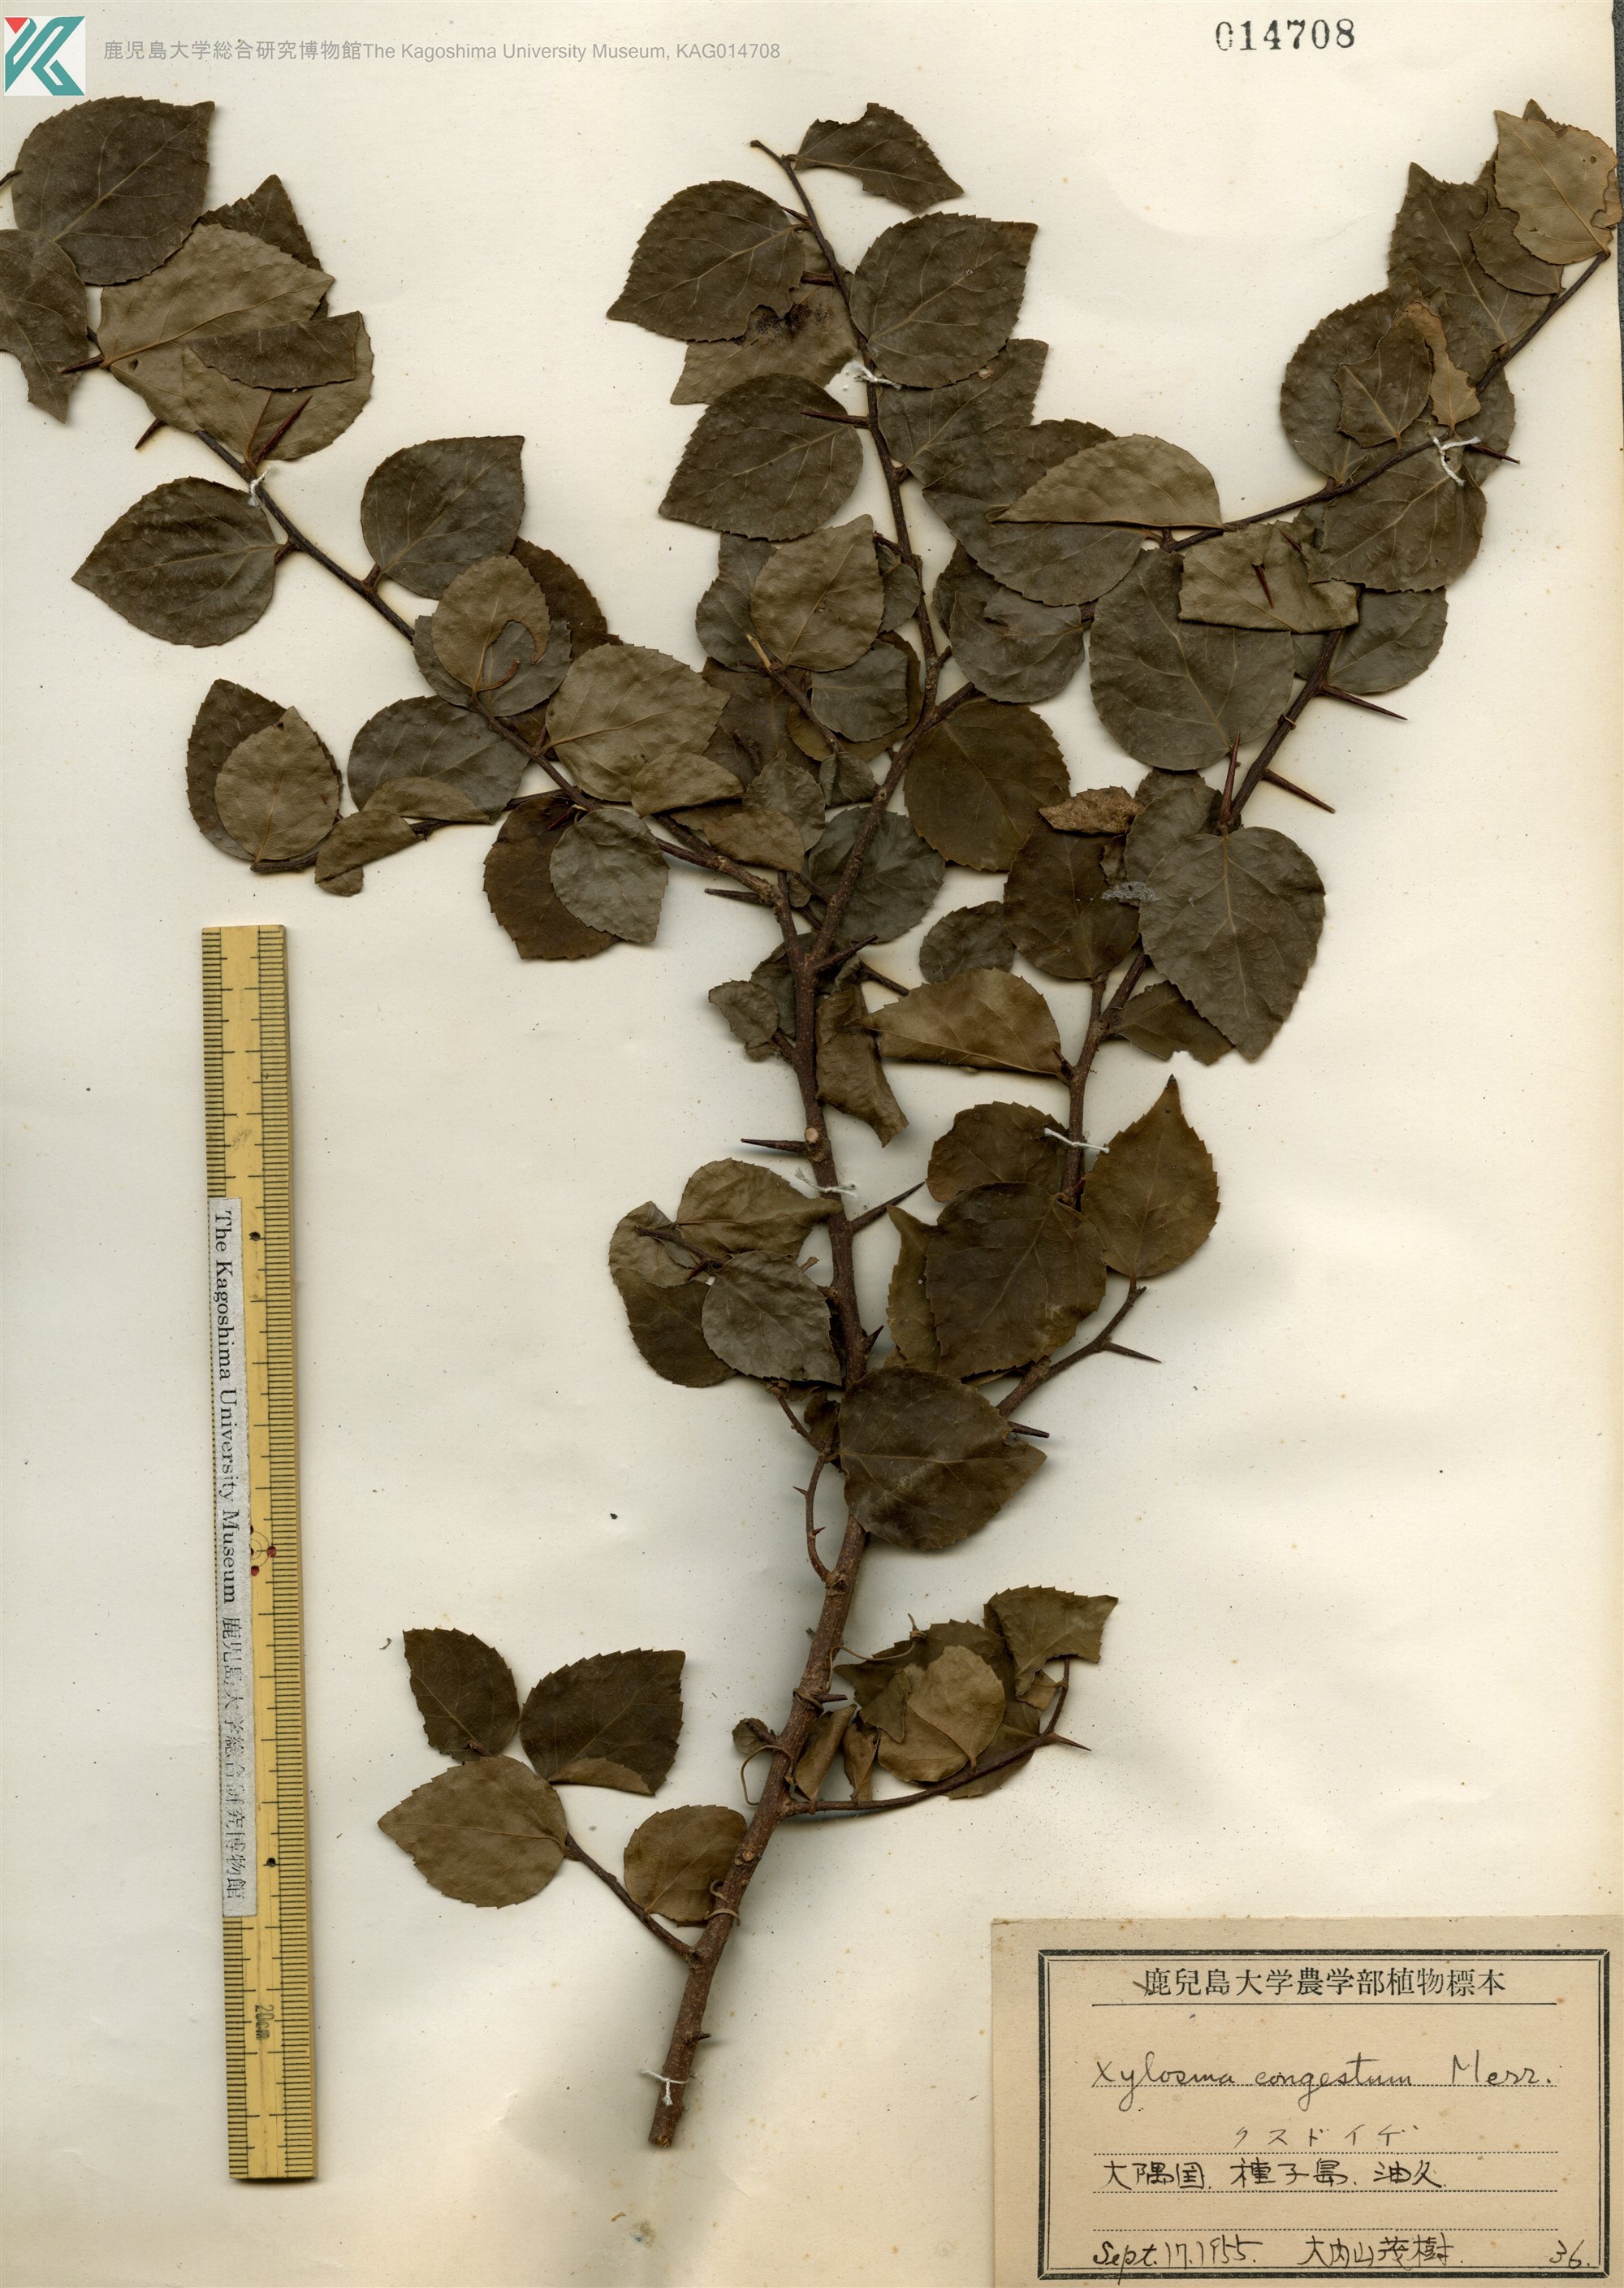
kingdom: Plantae
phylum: Tracheophyta
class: Magnoliopsida
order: Malpighiales
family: Salicaceae
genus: Xylosma
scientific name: Xylosma racemosum
